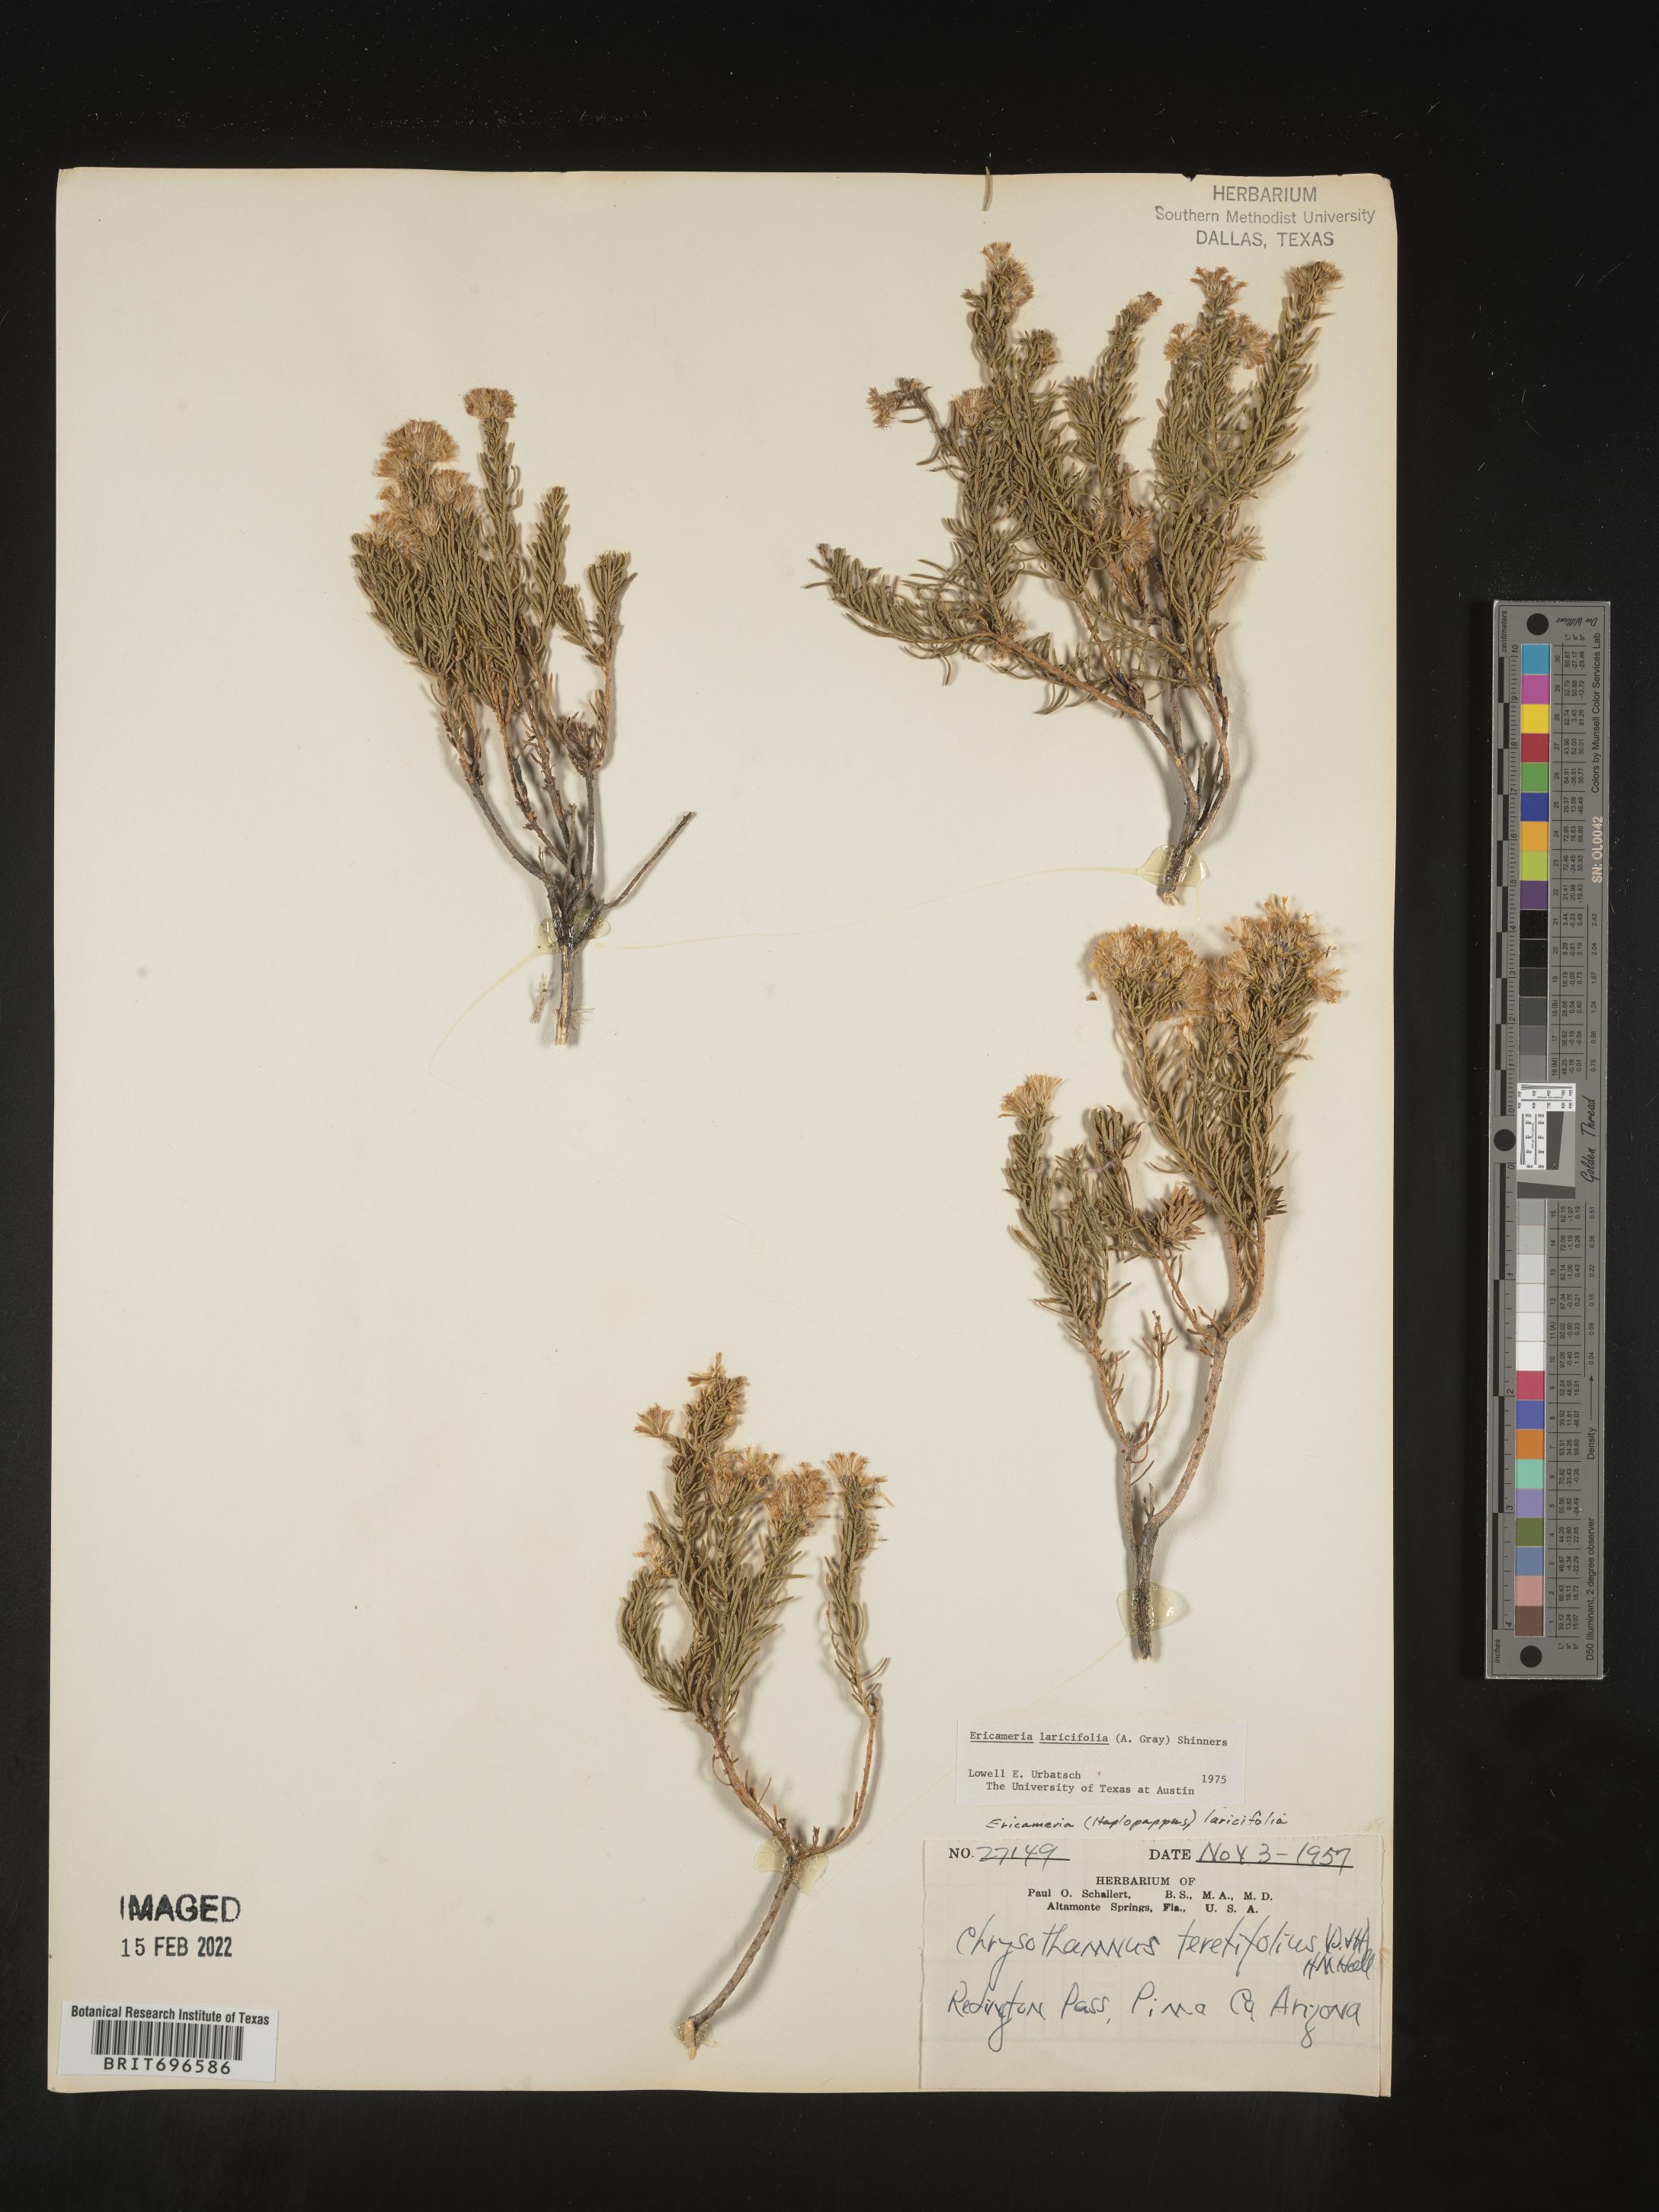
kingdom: Plantae
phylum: Tracheophyta
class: Magnoliopsida
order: Asterales
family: Asteraceae
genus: Ericameria
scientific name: Ericameria laricifolia
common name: Turpentine-bush
